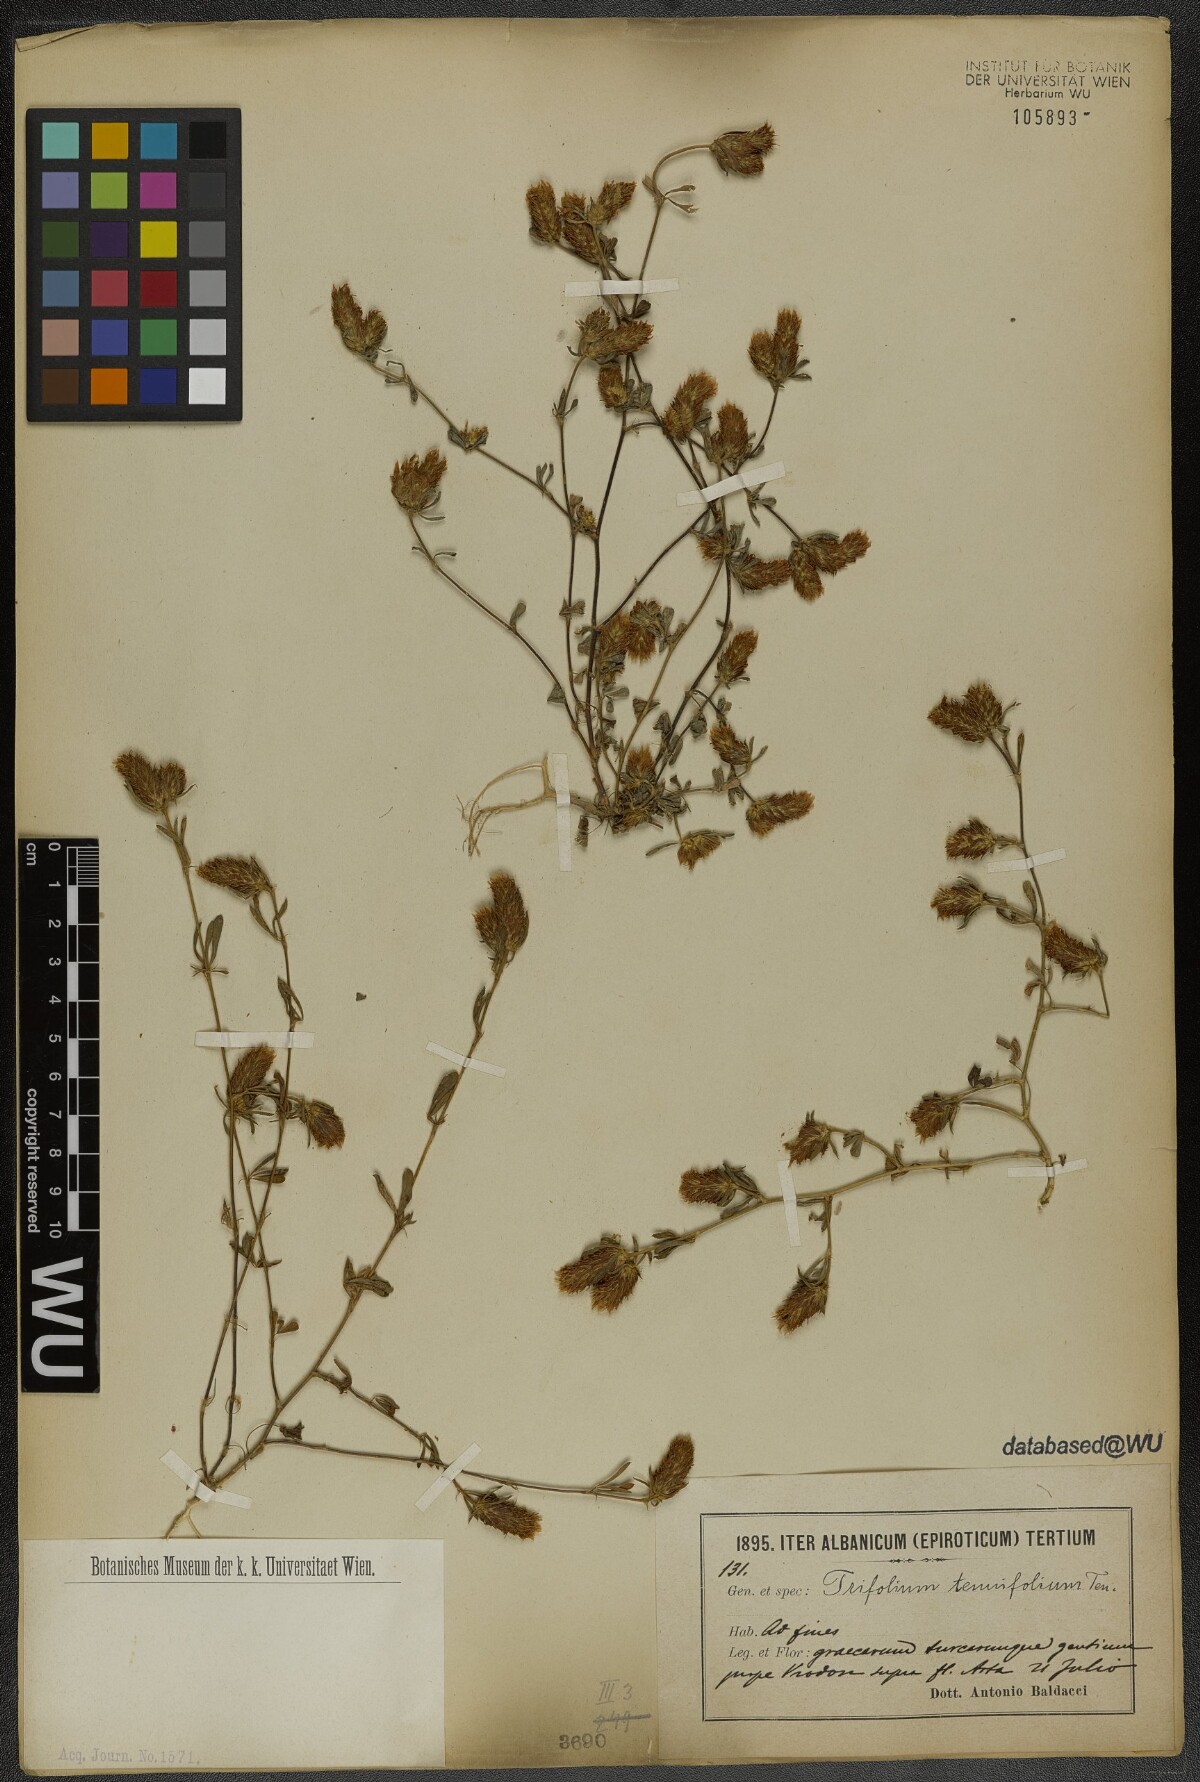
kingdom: Plantae
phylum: Tracheophyta
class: Magnoliopsida
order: Fabales
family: Fabaceae
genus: Trifolium
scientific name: Trifolium tenuifolium
